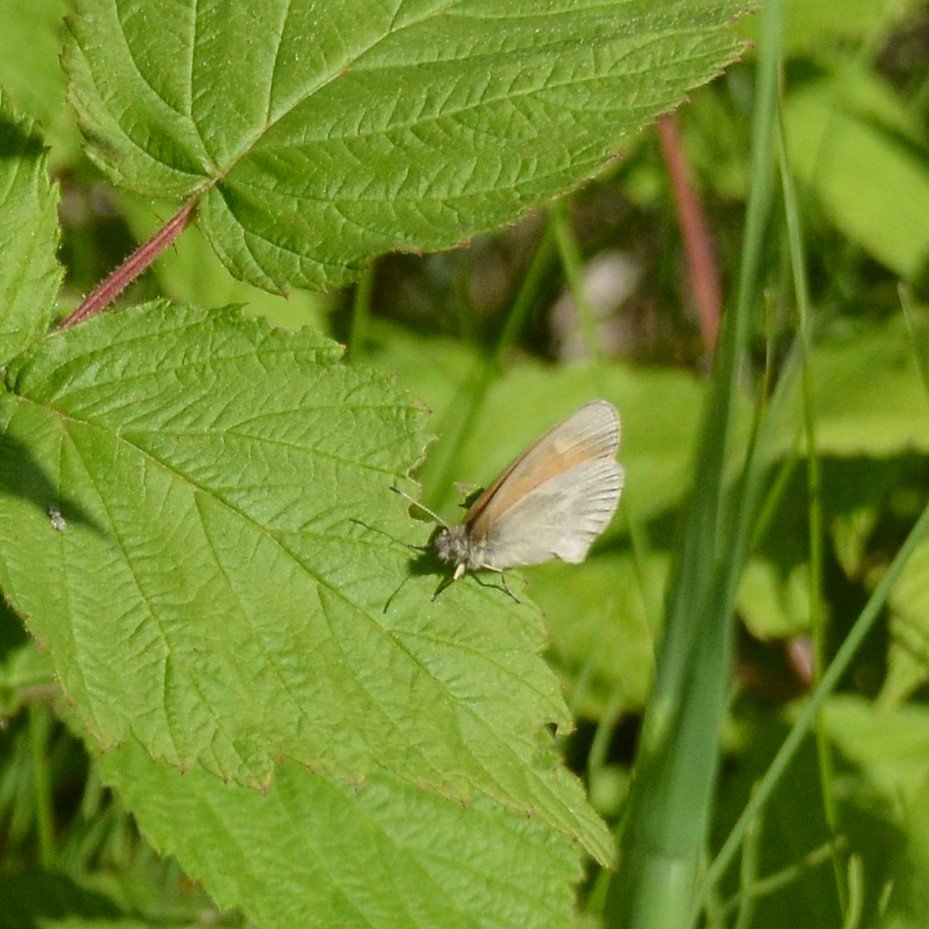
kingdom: Animalia
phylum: Arthropoda
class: Insecta
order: Lepidoptera
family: Nymphalidae
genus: Coenonympha
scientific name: Coenonympha tullia
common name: Large Heath
